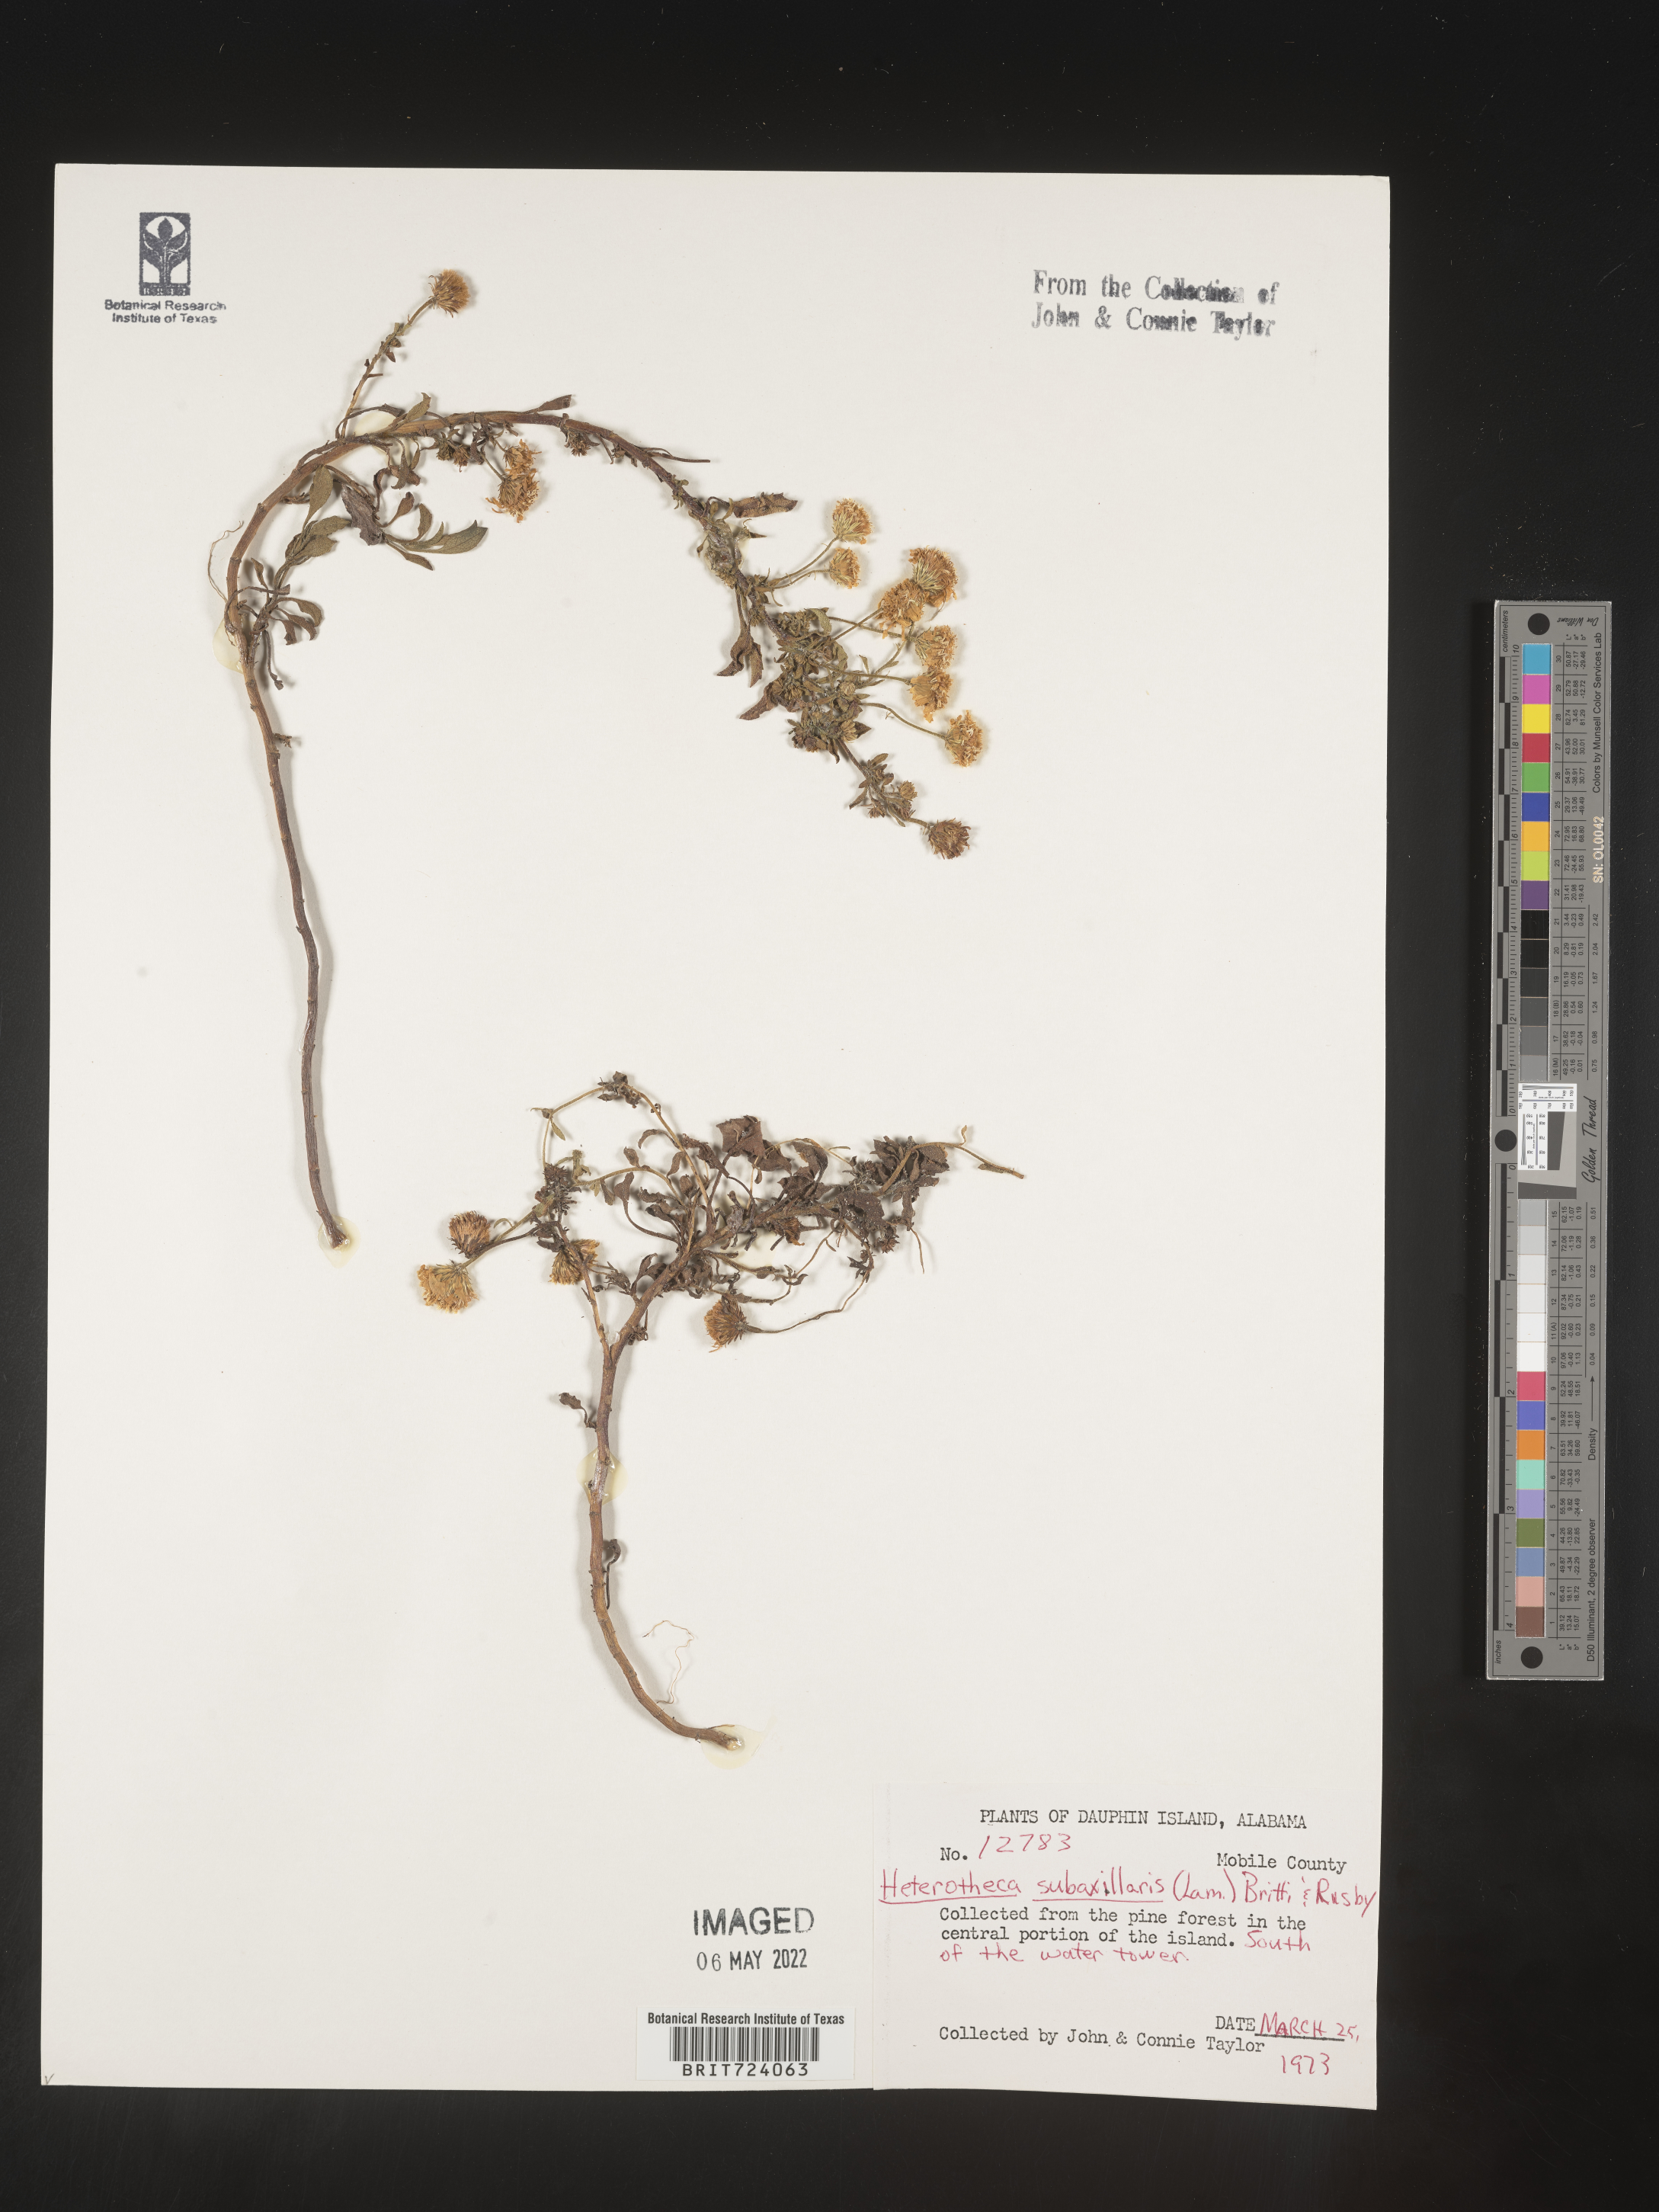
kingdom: Plantae
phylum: Tracheophyta
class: Magnoliopsida
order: Asterales
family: Asteraceae
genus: Heterotheca
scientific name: Heterotheca subaxillaris
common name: Camphorweed
